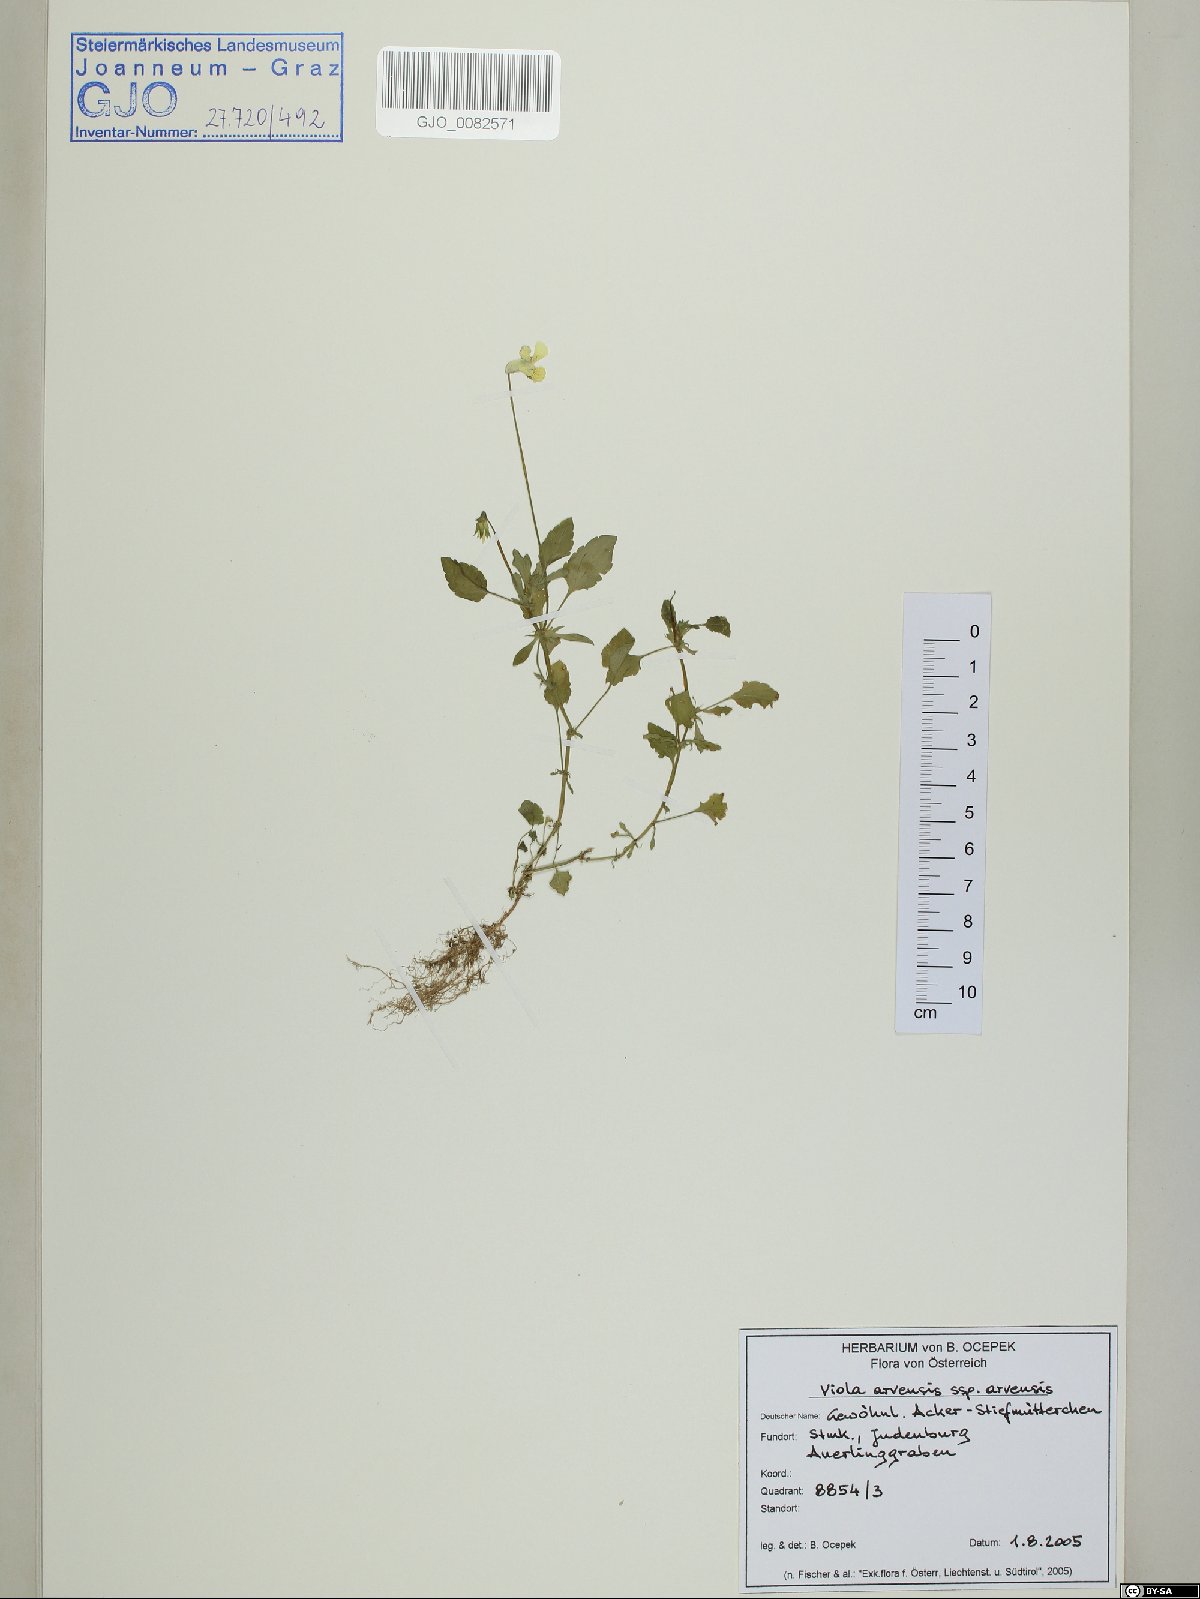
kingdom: Plantae
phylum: Tracheophyta
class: Magnoliopsida
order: Malpighiales
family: Violaceae
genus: Viola
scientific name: Viola arvensis
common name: Field pansy
